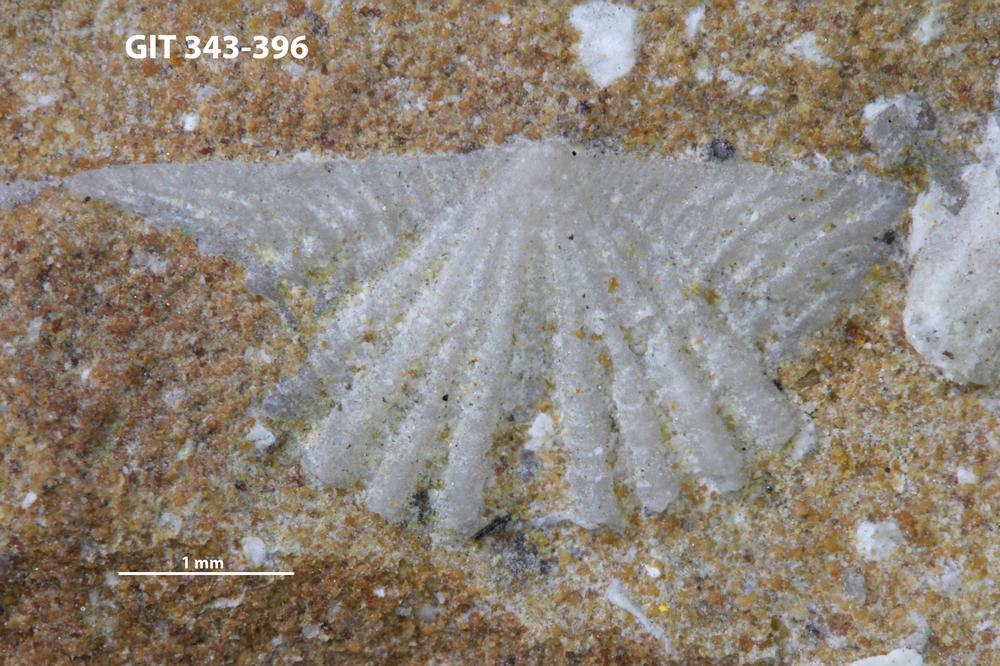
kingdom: Animalia
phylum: Brachiopoda
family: Kullervoidae
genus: Kullervo
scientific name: Kullervo
